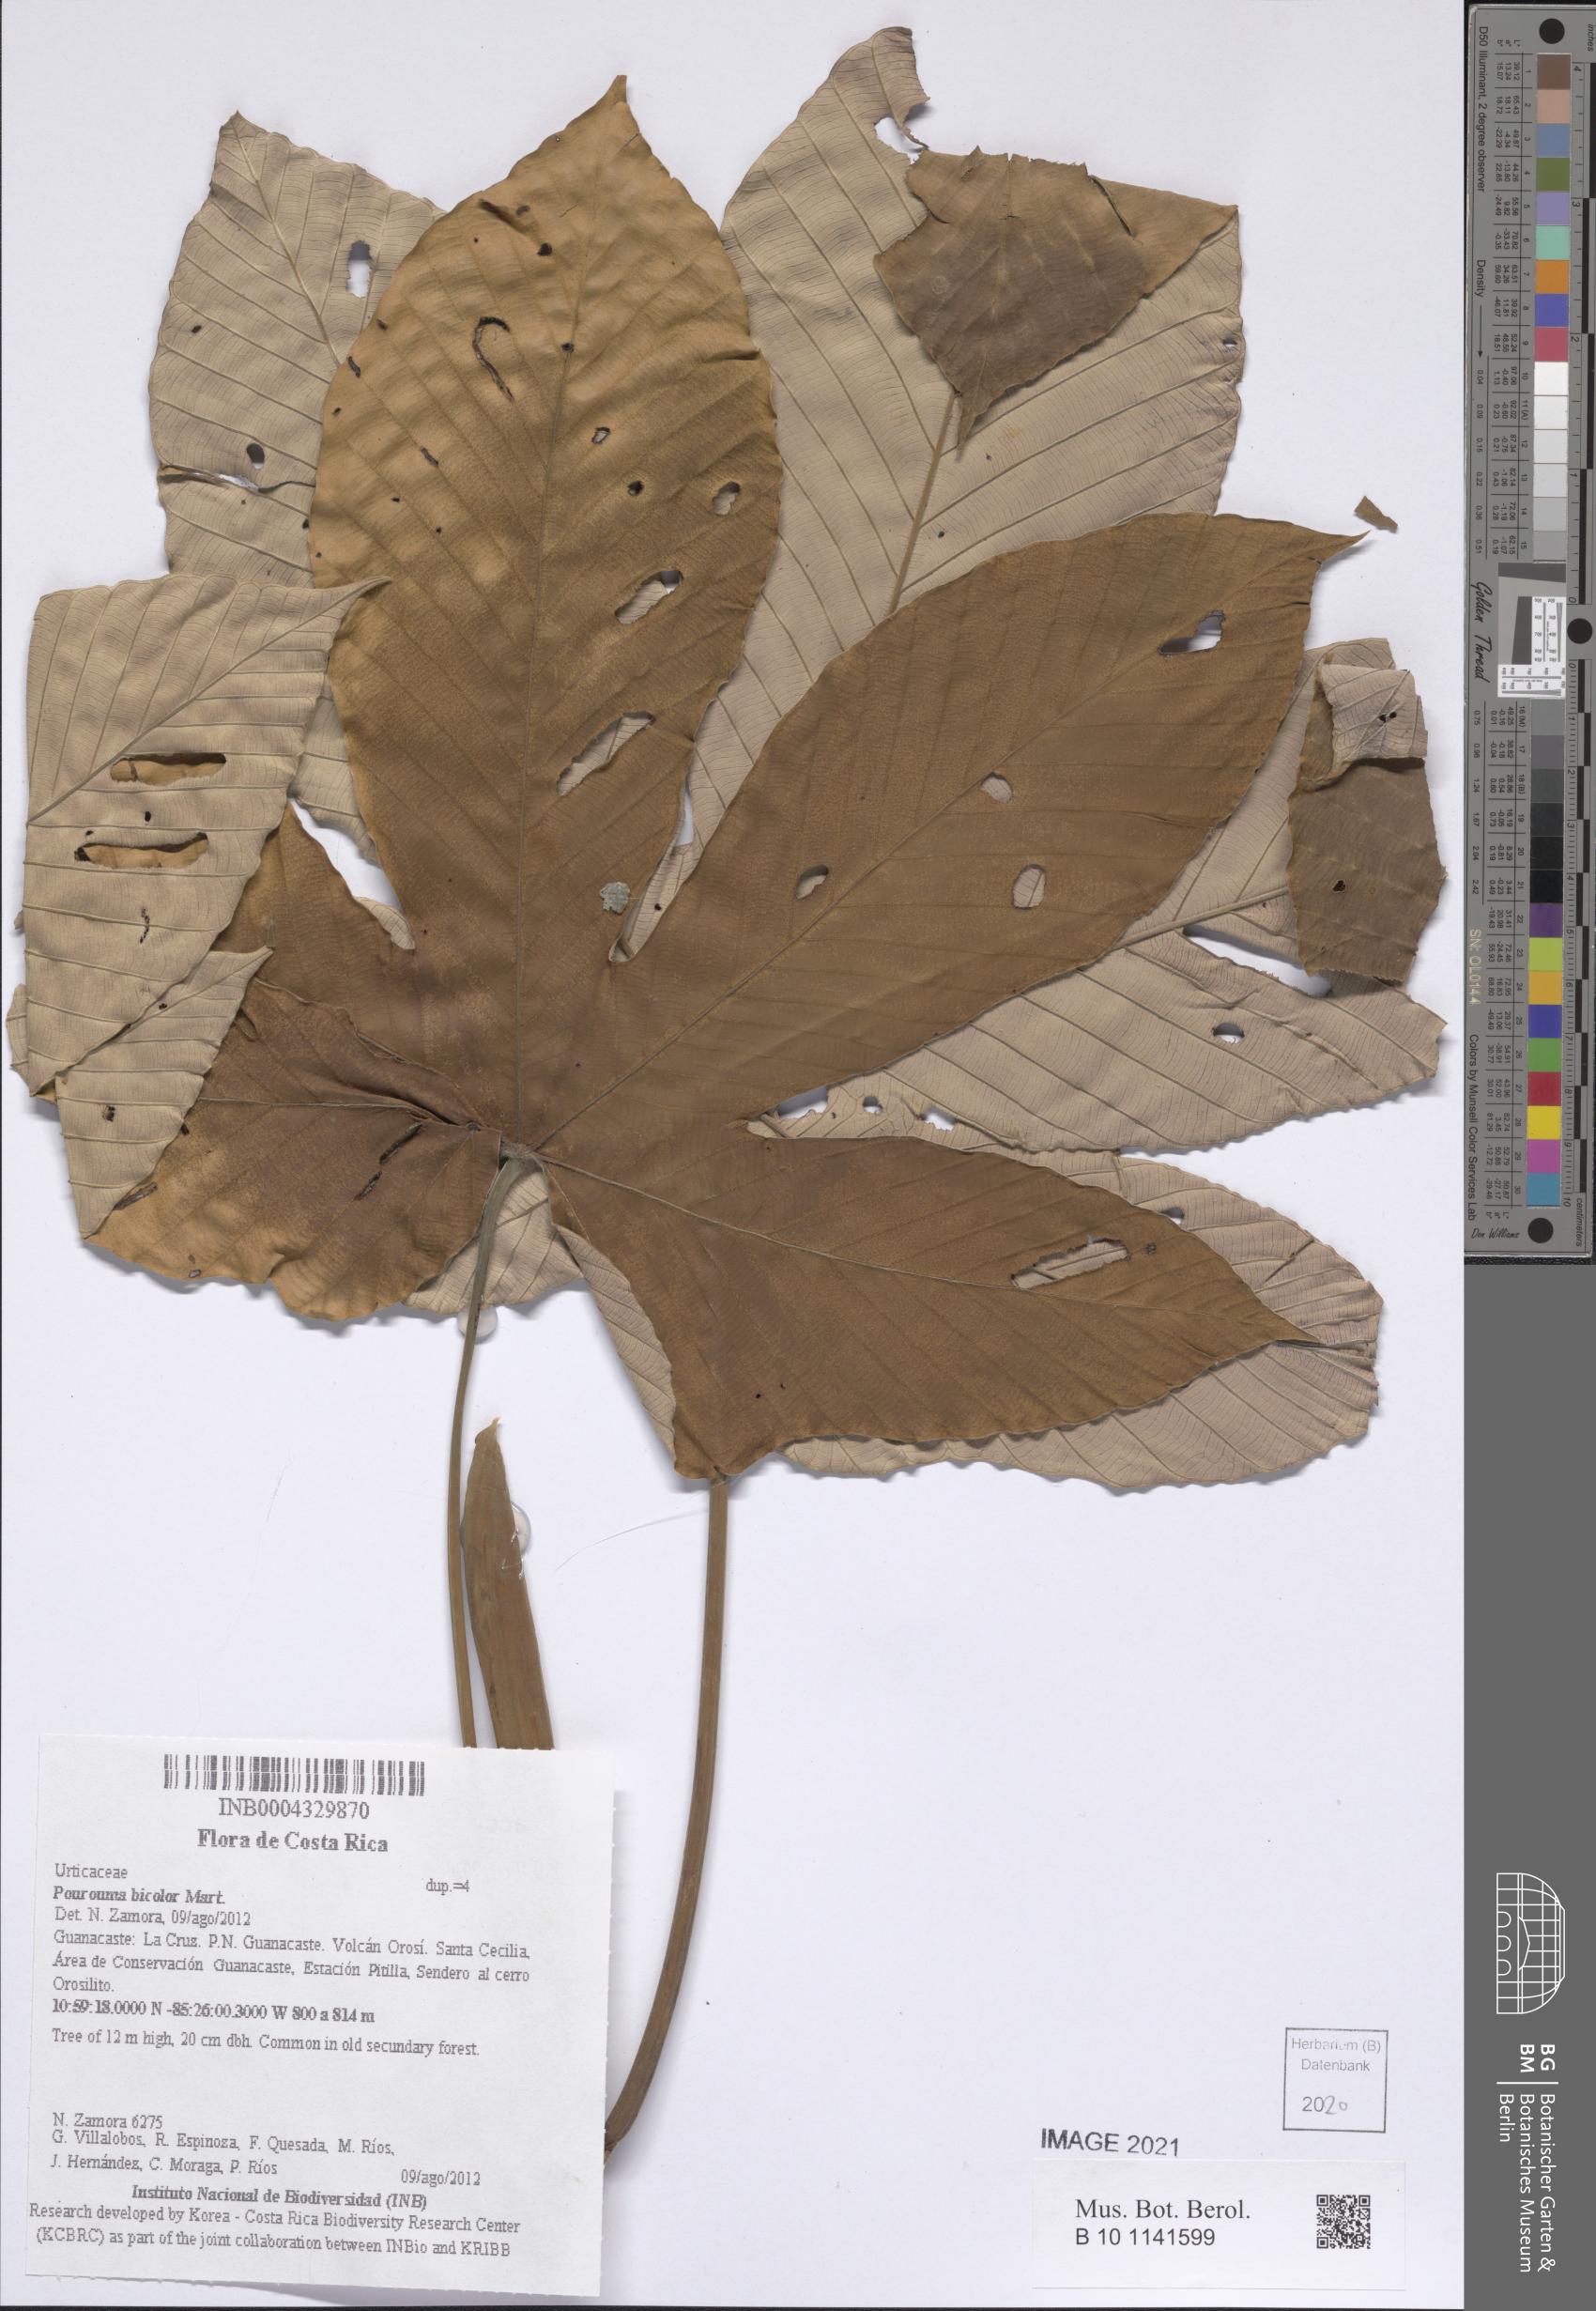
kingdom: Plantae
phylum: Tracheophyta
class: Magnoliopsida
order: Rosales
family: Urticaceae
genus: Pourouma
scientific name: Pourouma bicolor
